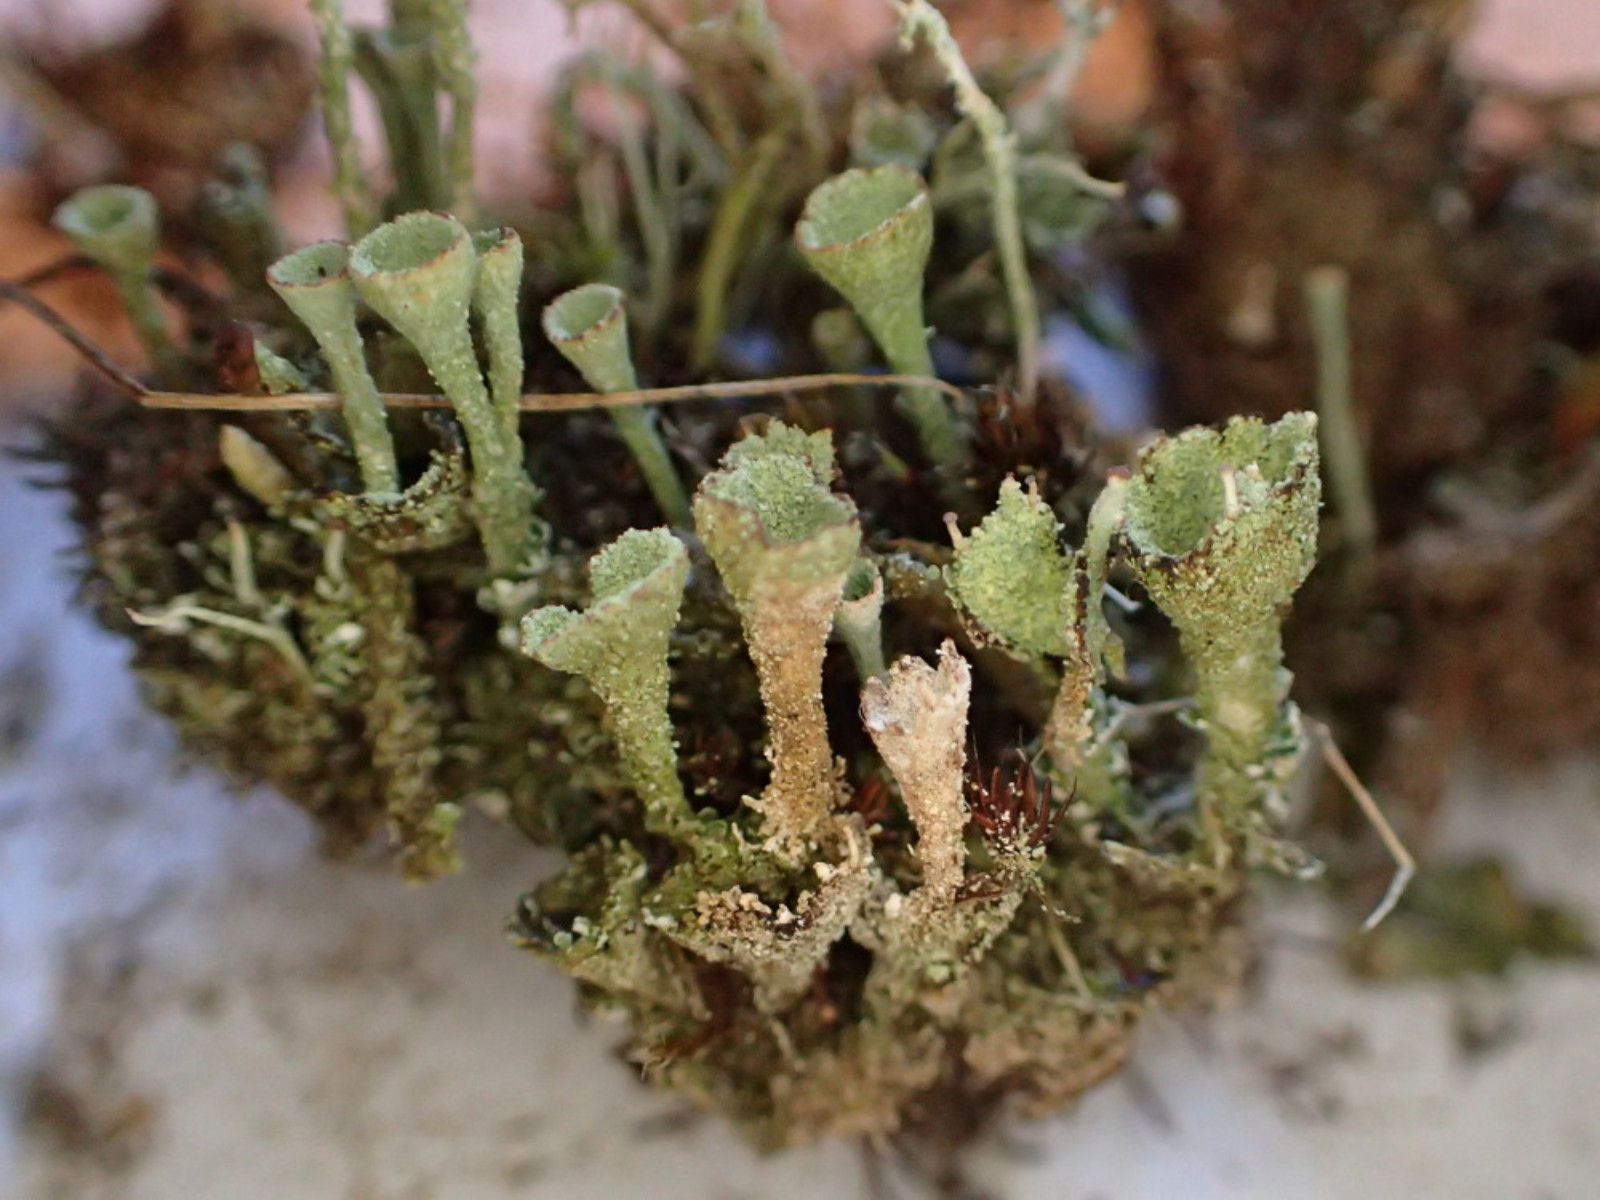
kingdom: Fungi
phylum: Ascomycota
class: Lecanoromycetes
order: Lecanorales
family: Cladoniaceae
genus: Cladonia
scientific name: Cladonia
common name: brungrøn bægerlav
